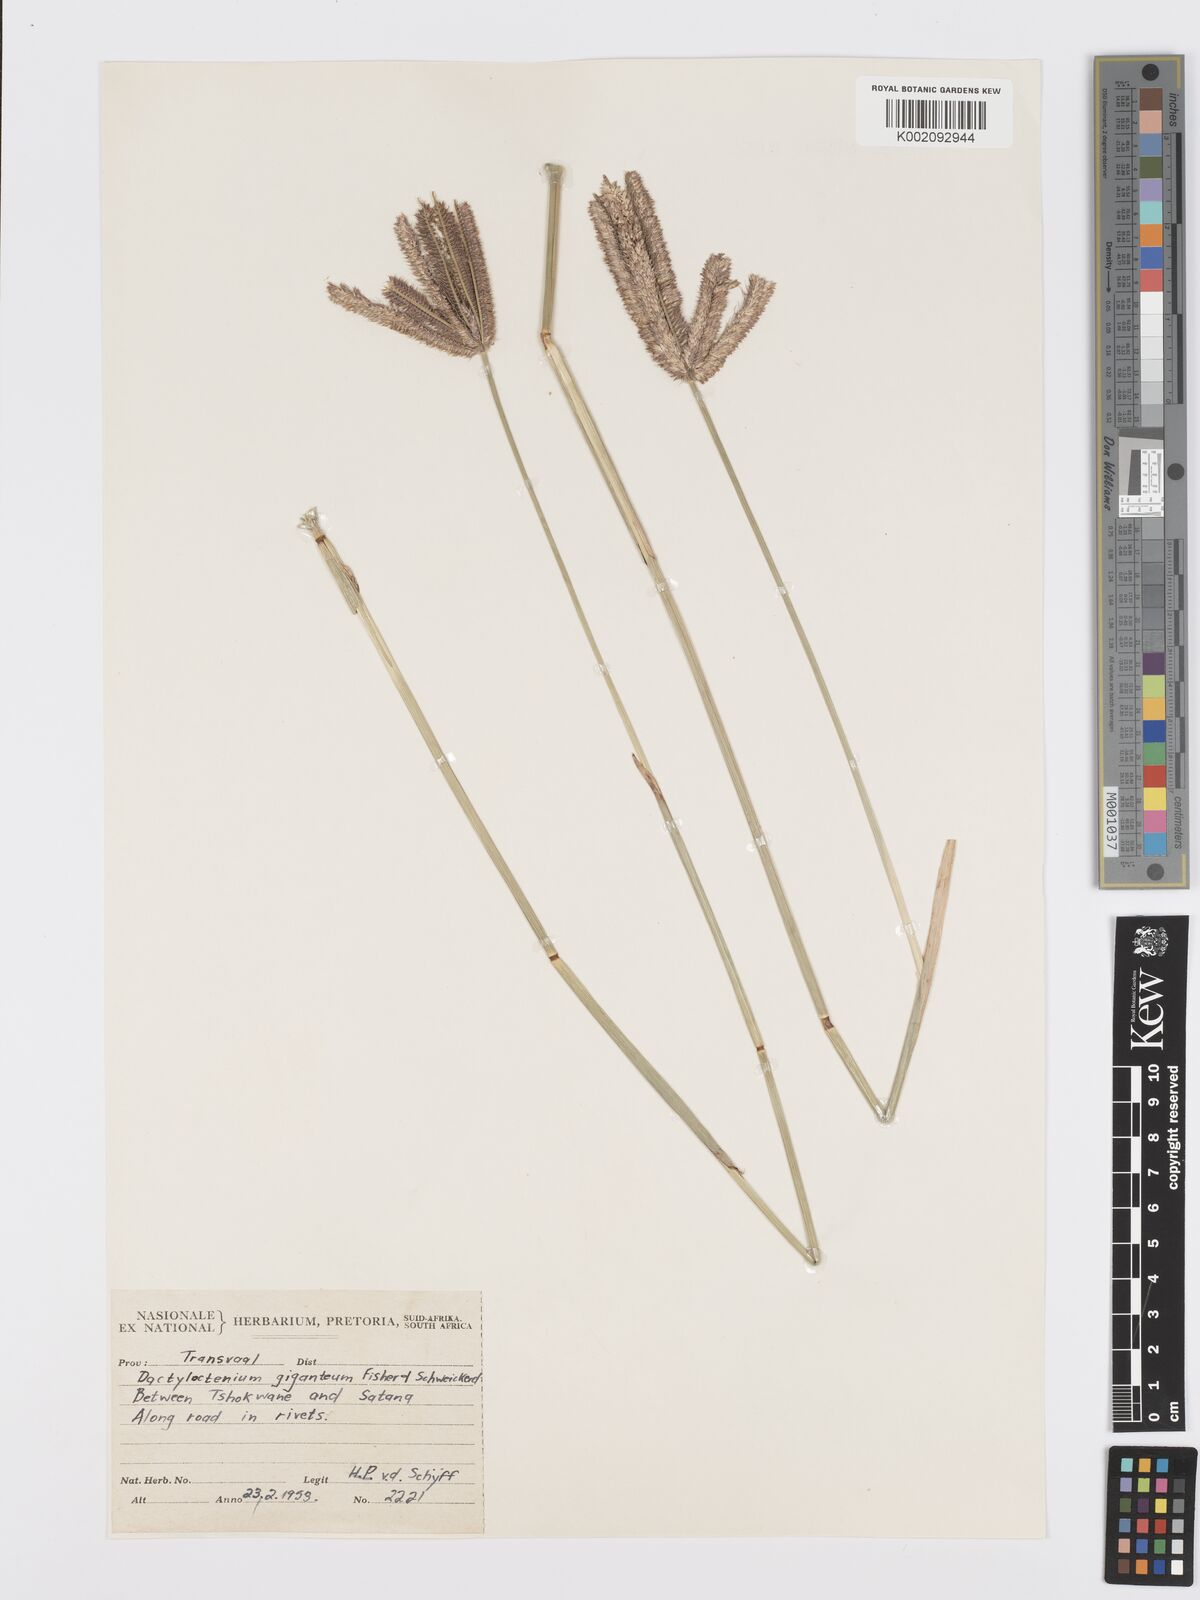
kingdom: Plantae
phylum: Tracheophyta
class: Liliopsida
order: Poales
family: Poaceae
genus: Dactyloctenium
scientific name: Dactyloctenium giganteum
